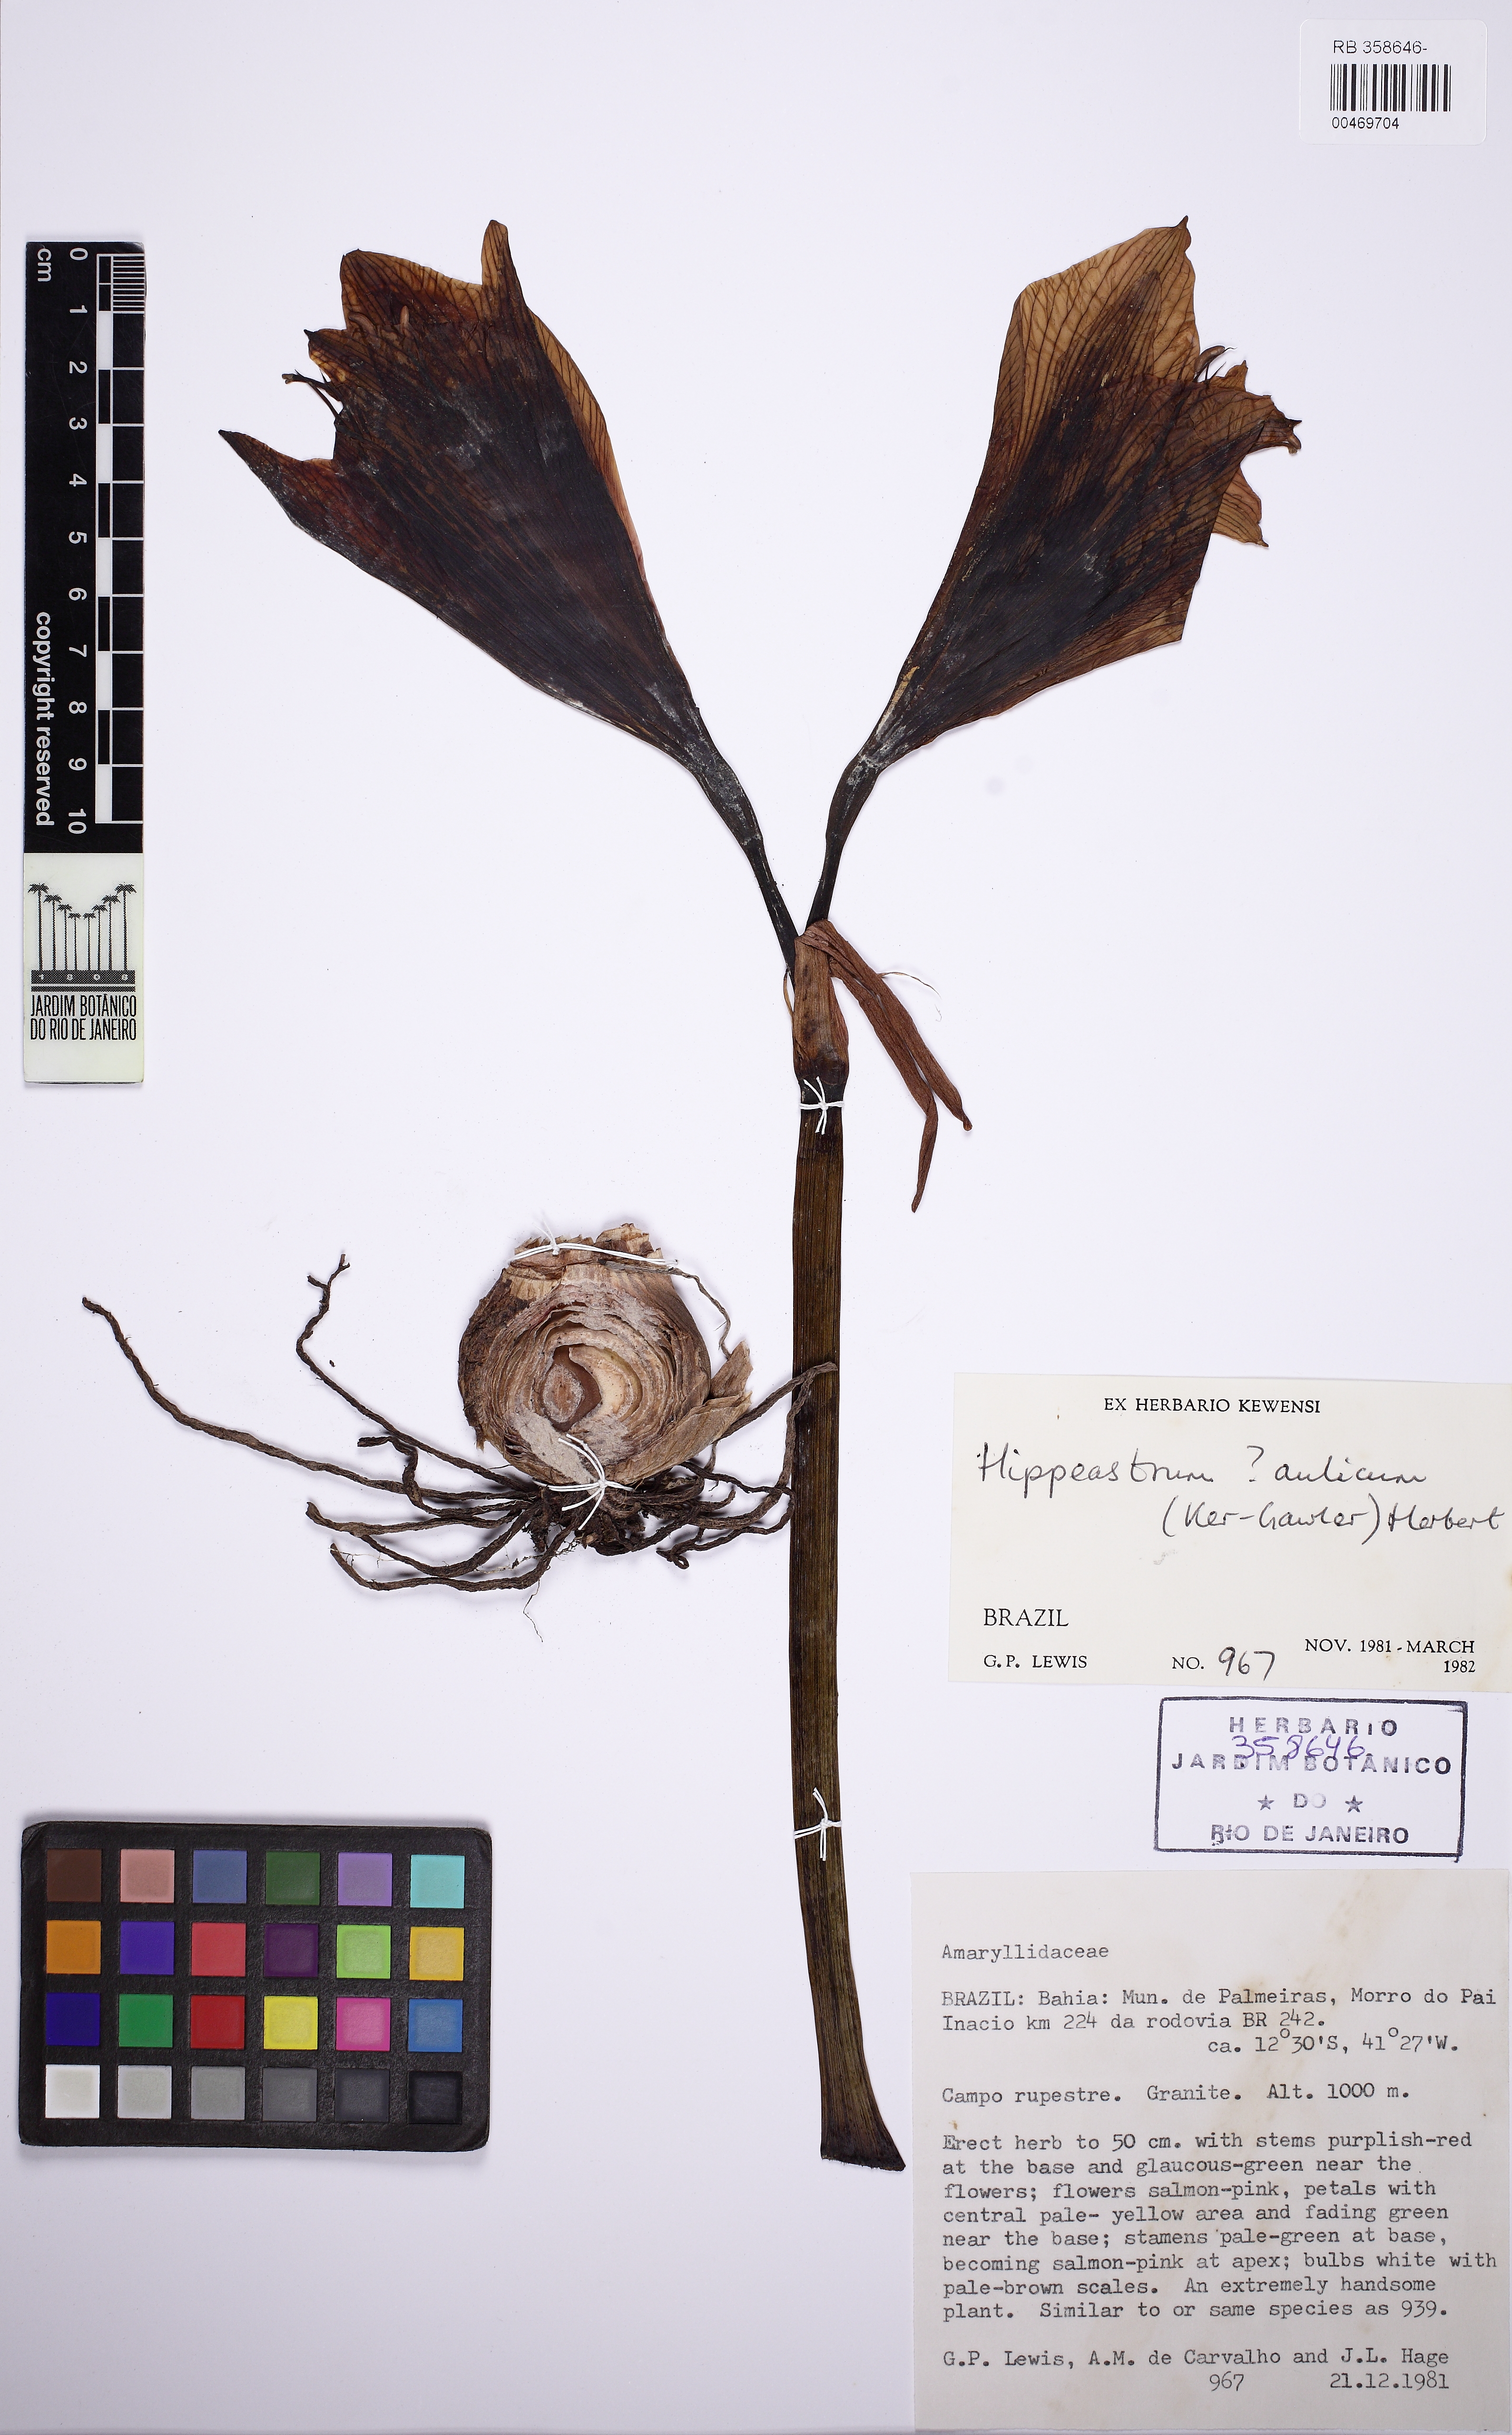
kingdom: Plantae
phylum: Tracheophyta
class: Liliopsida
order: Asparagales
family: Amaryllidaceae
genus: Hippeastrum
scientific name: Hippeastrum glaucescens
